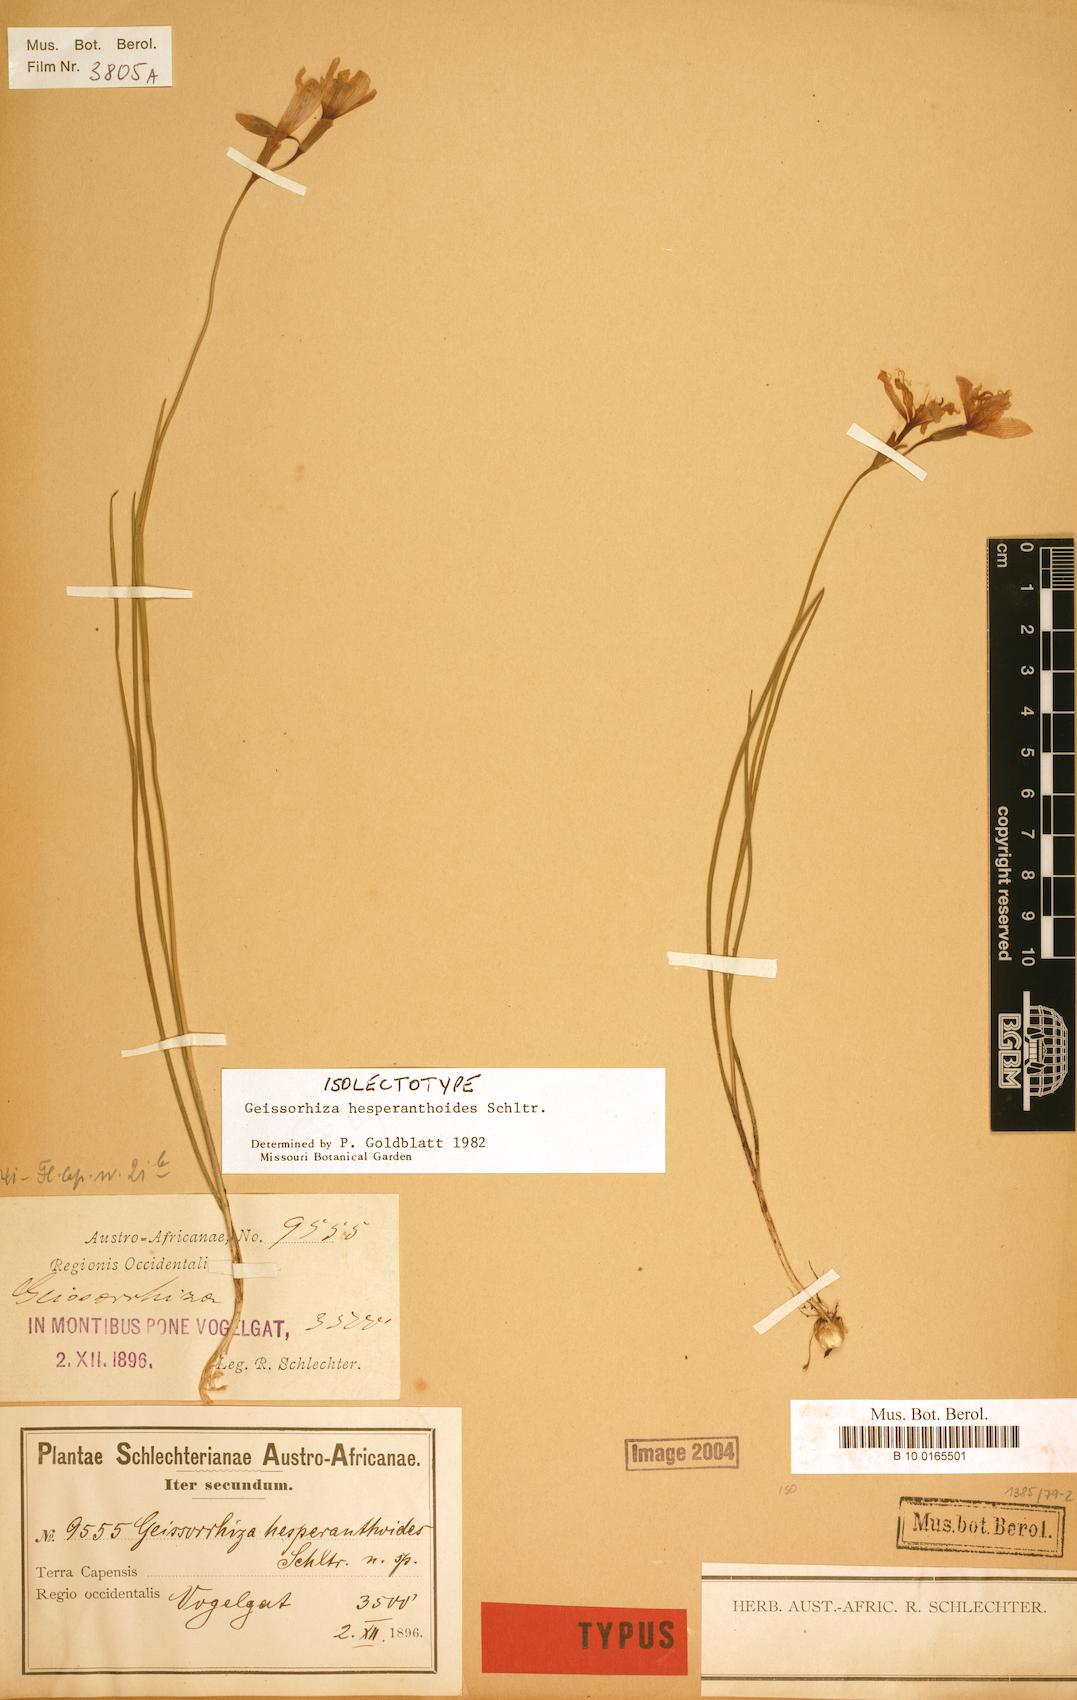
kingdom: Plantae
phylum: Tracheophyta
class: Liliopsida
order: Asparagales
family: Iridaceae
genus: Geissorhiza
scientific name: Geissorhiza hesperanthoides
